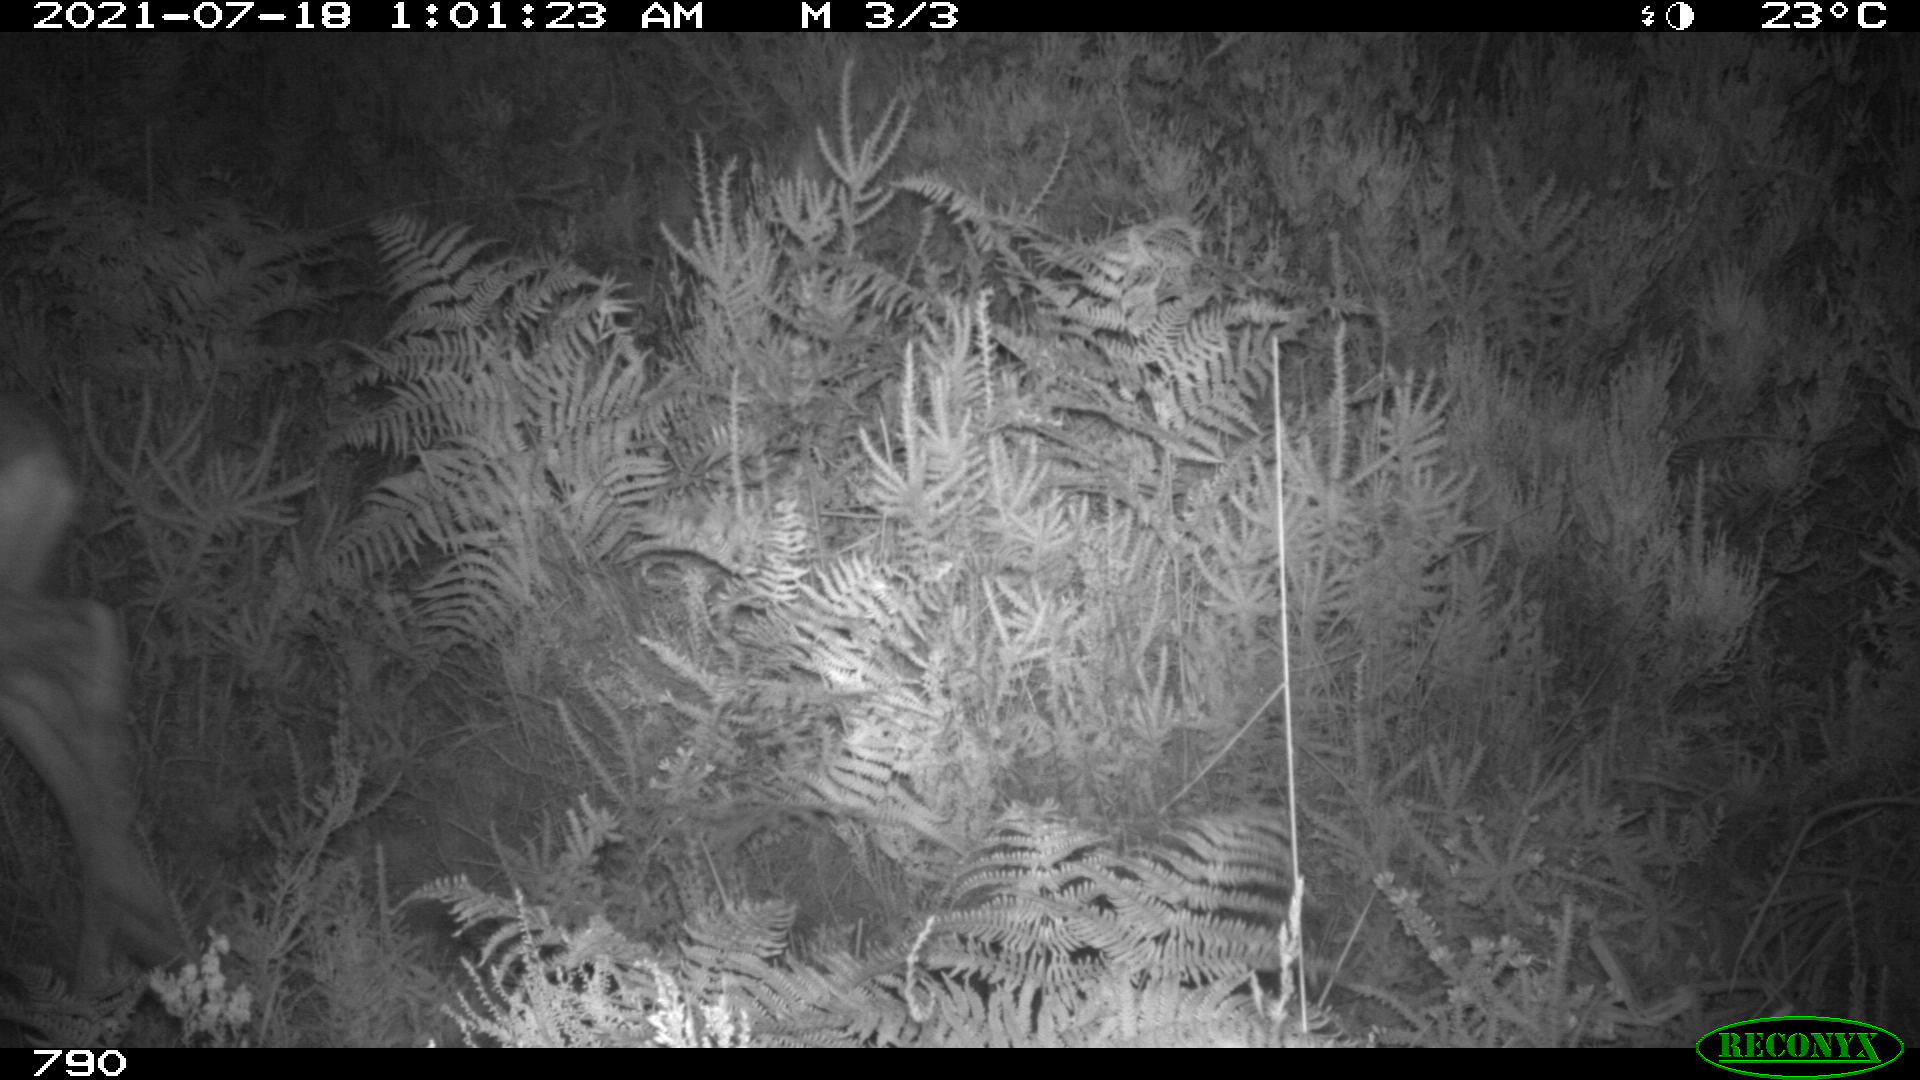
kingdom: Animalia
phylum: Chordata
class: Mammalia
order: Artiodactyla
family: Cervidae
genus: Capreolus
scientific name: Capreolus capreolus
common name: Western roe deer
